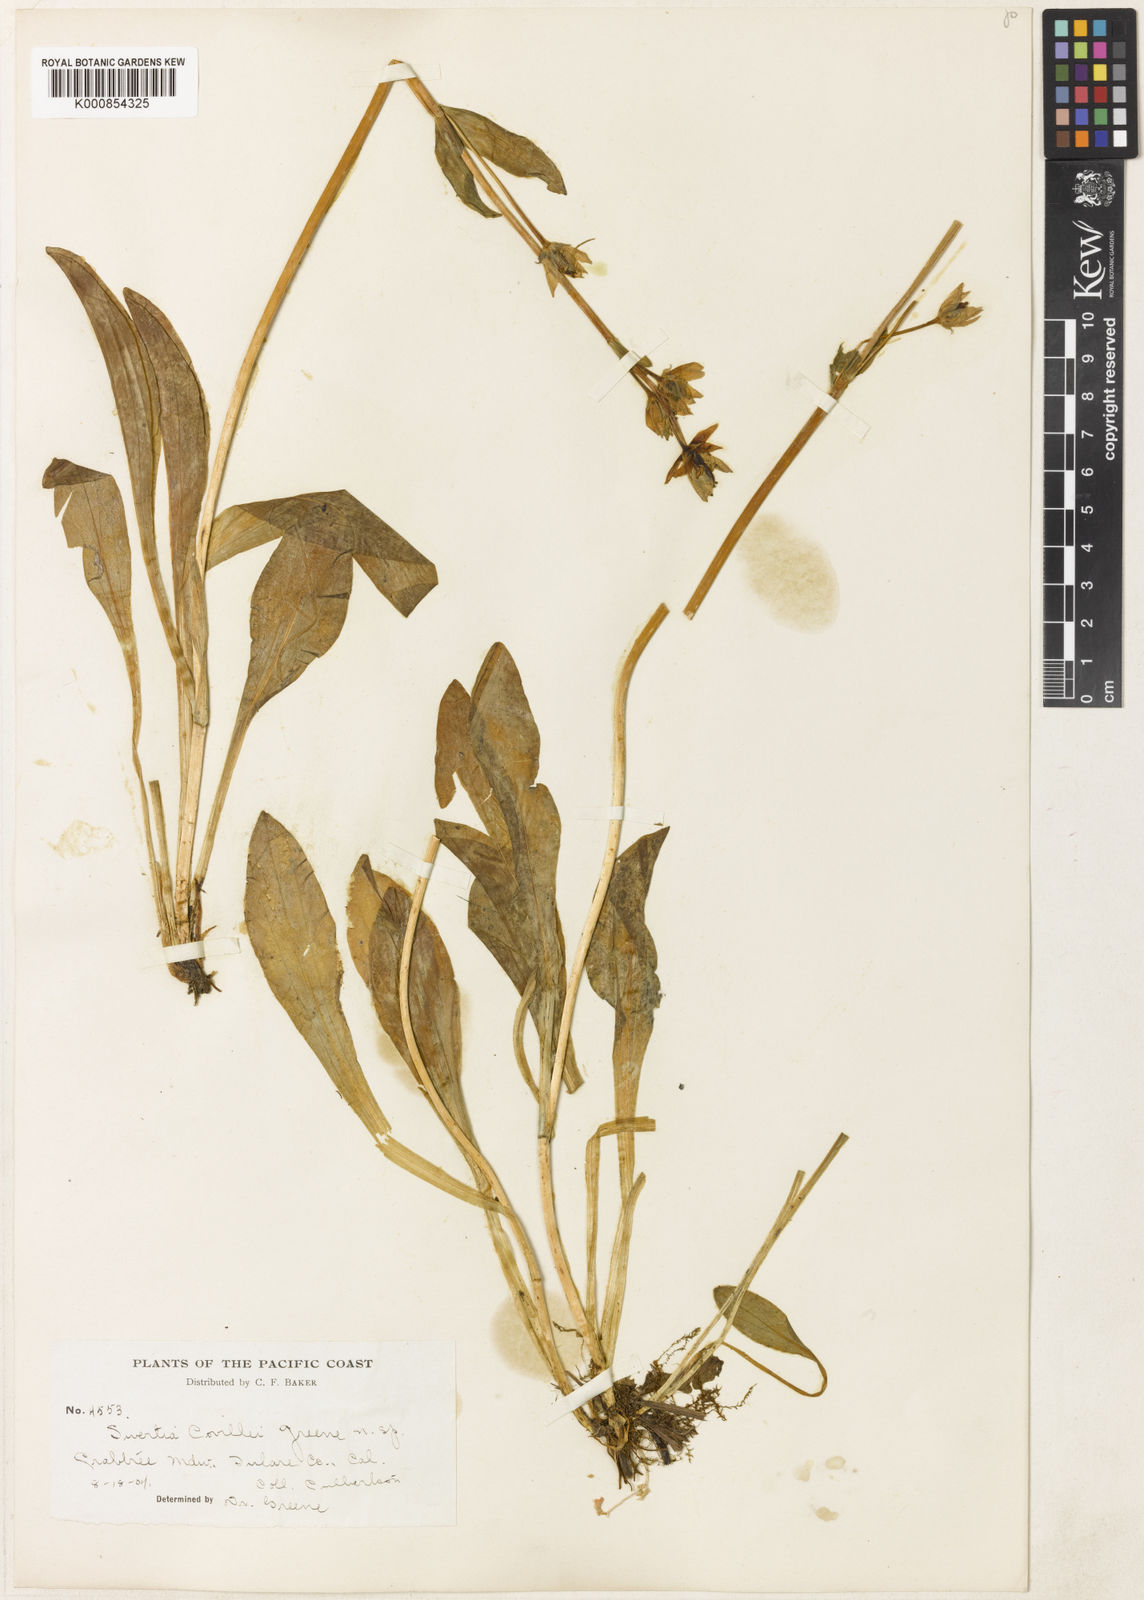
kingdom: Plantae
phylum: Tracheophyta
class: Magnoliopsida
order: Gentianales
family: Gentianaceae
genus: Swertia
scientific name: Swertia perennis
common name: Alpine bog swertia
